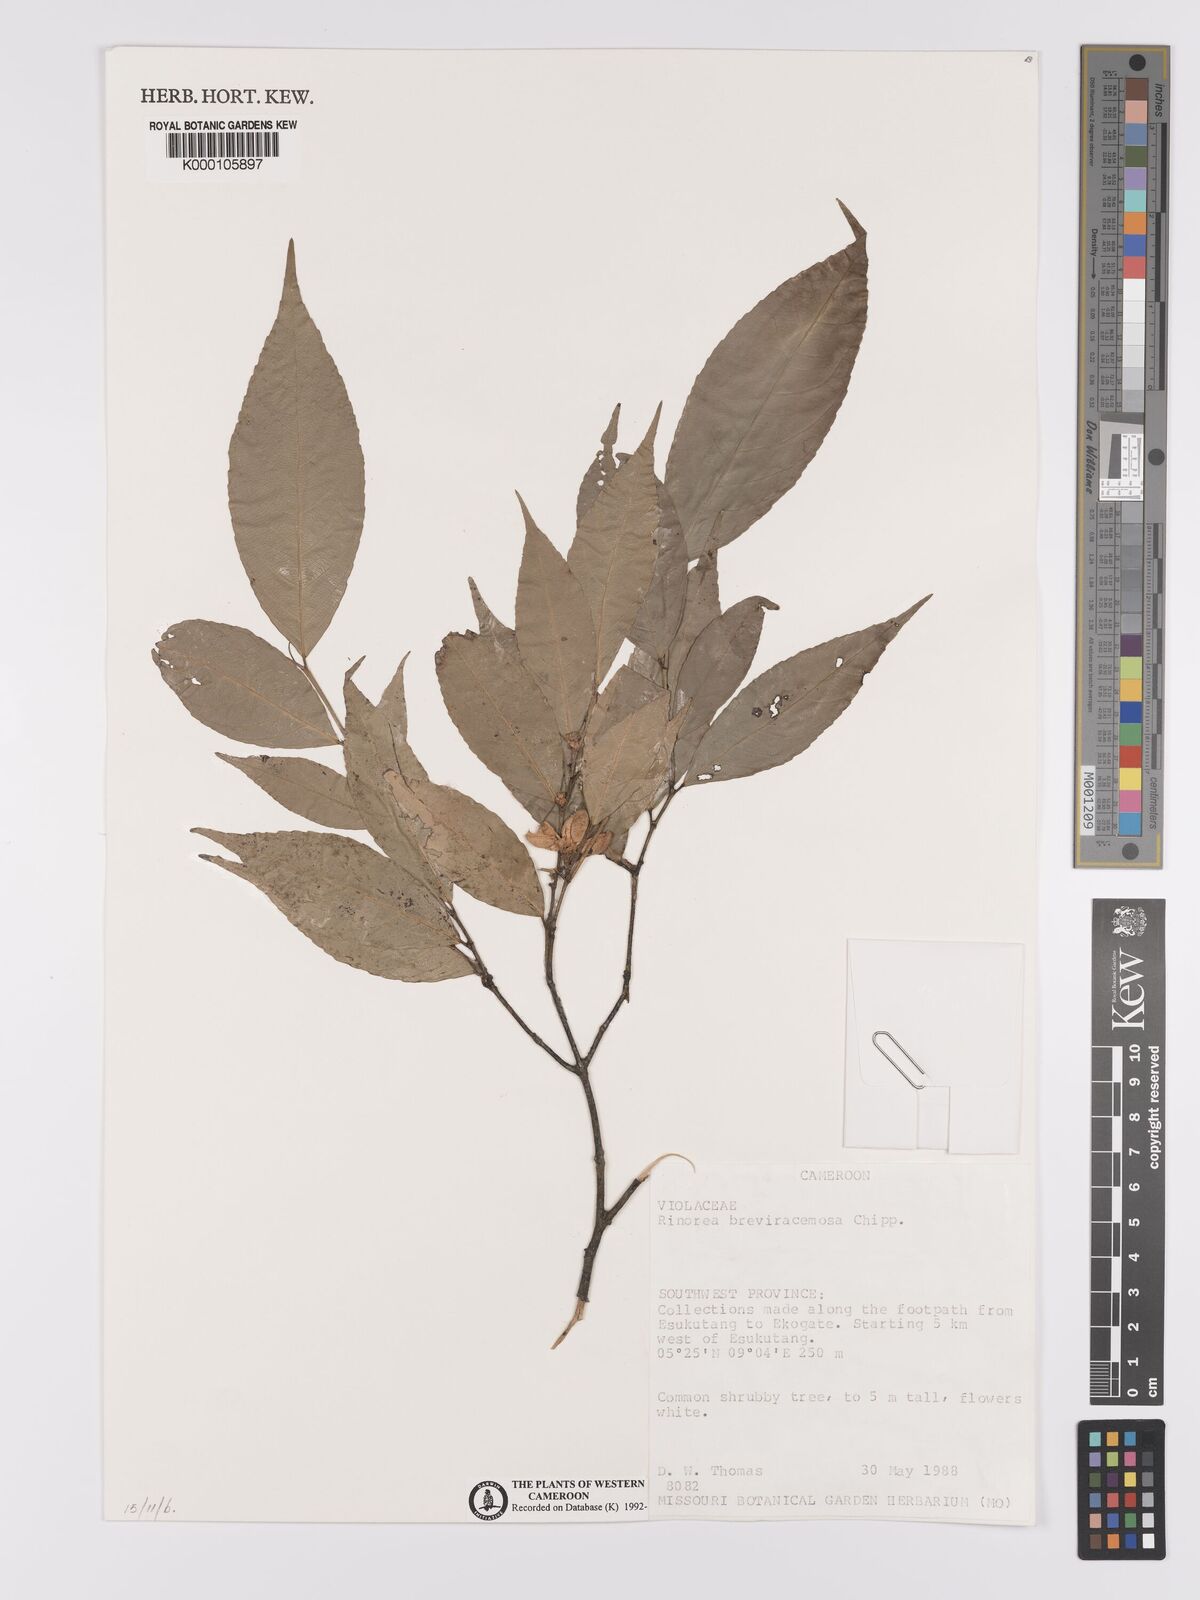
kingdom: Plantae
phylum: Tracheophyta
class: Magnoliopsida
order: Malpighiales
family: Violaceae
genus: Rinorea
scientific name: Rinorea breviracemosa
